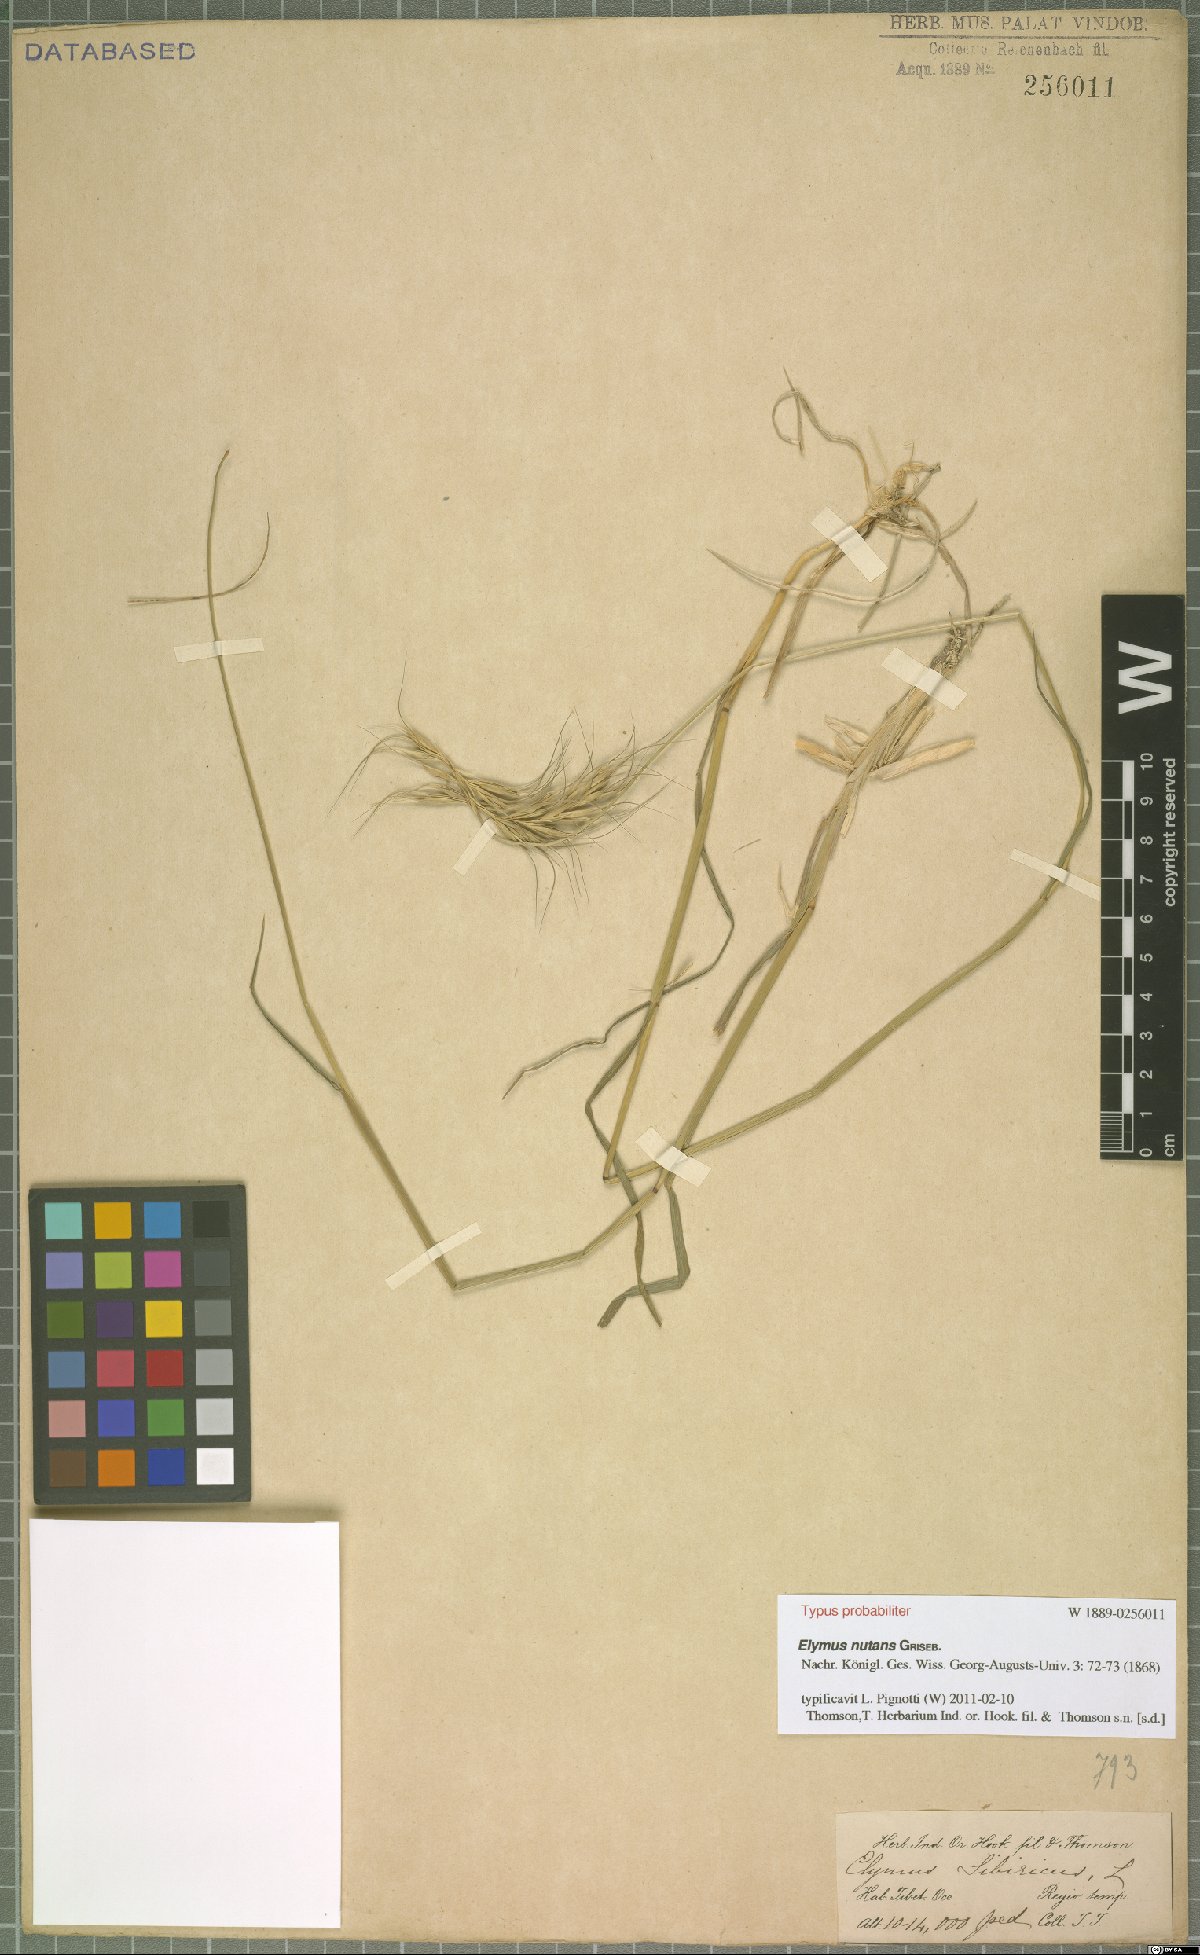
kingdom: Plantae
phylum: Tracheophyta
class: Liliopsida
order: Poales
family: Poaceae
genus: Elymus
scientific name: Elymus nutans
